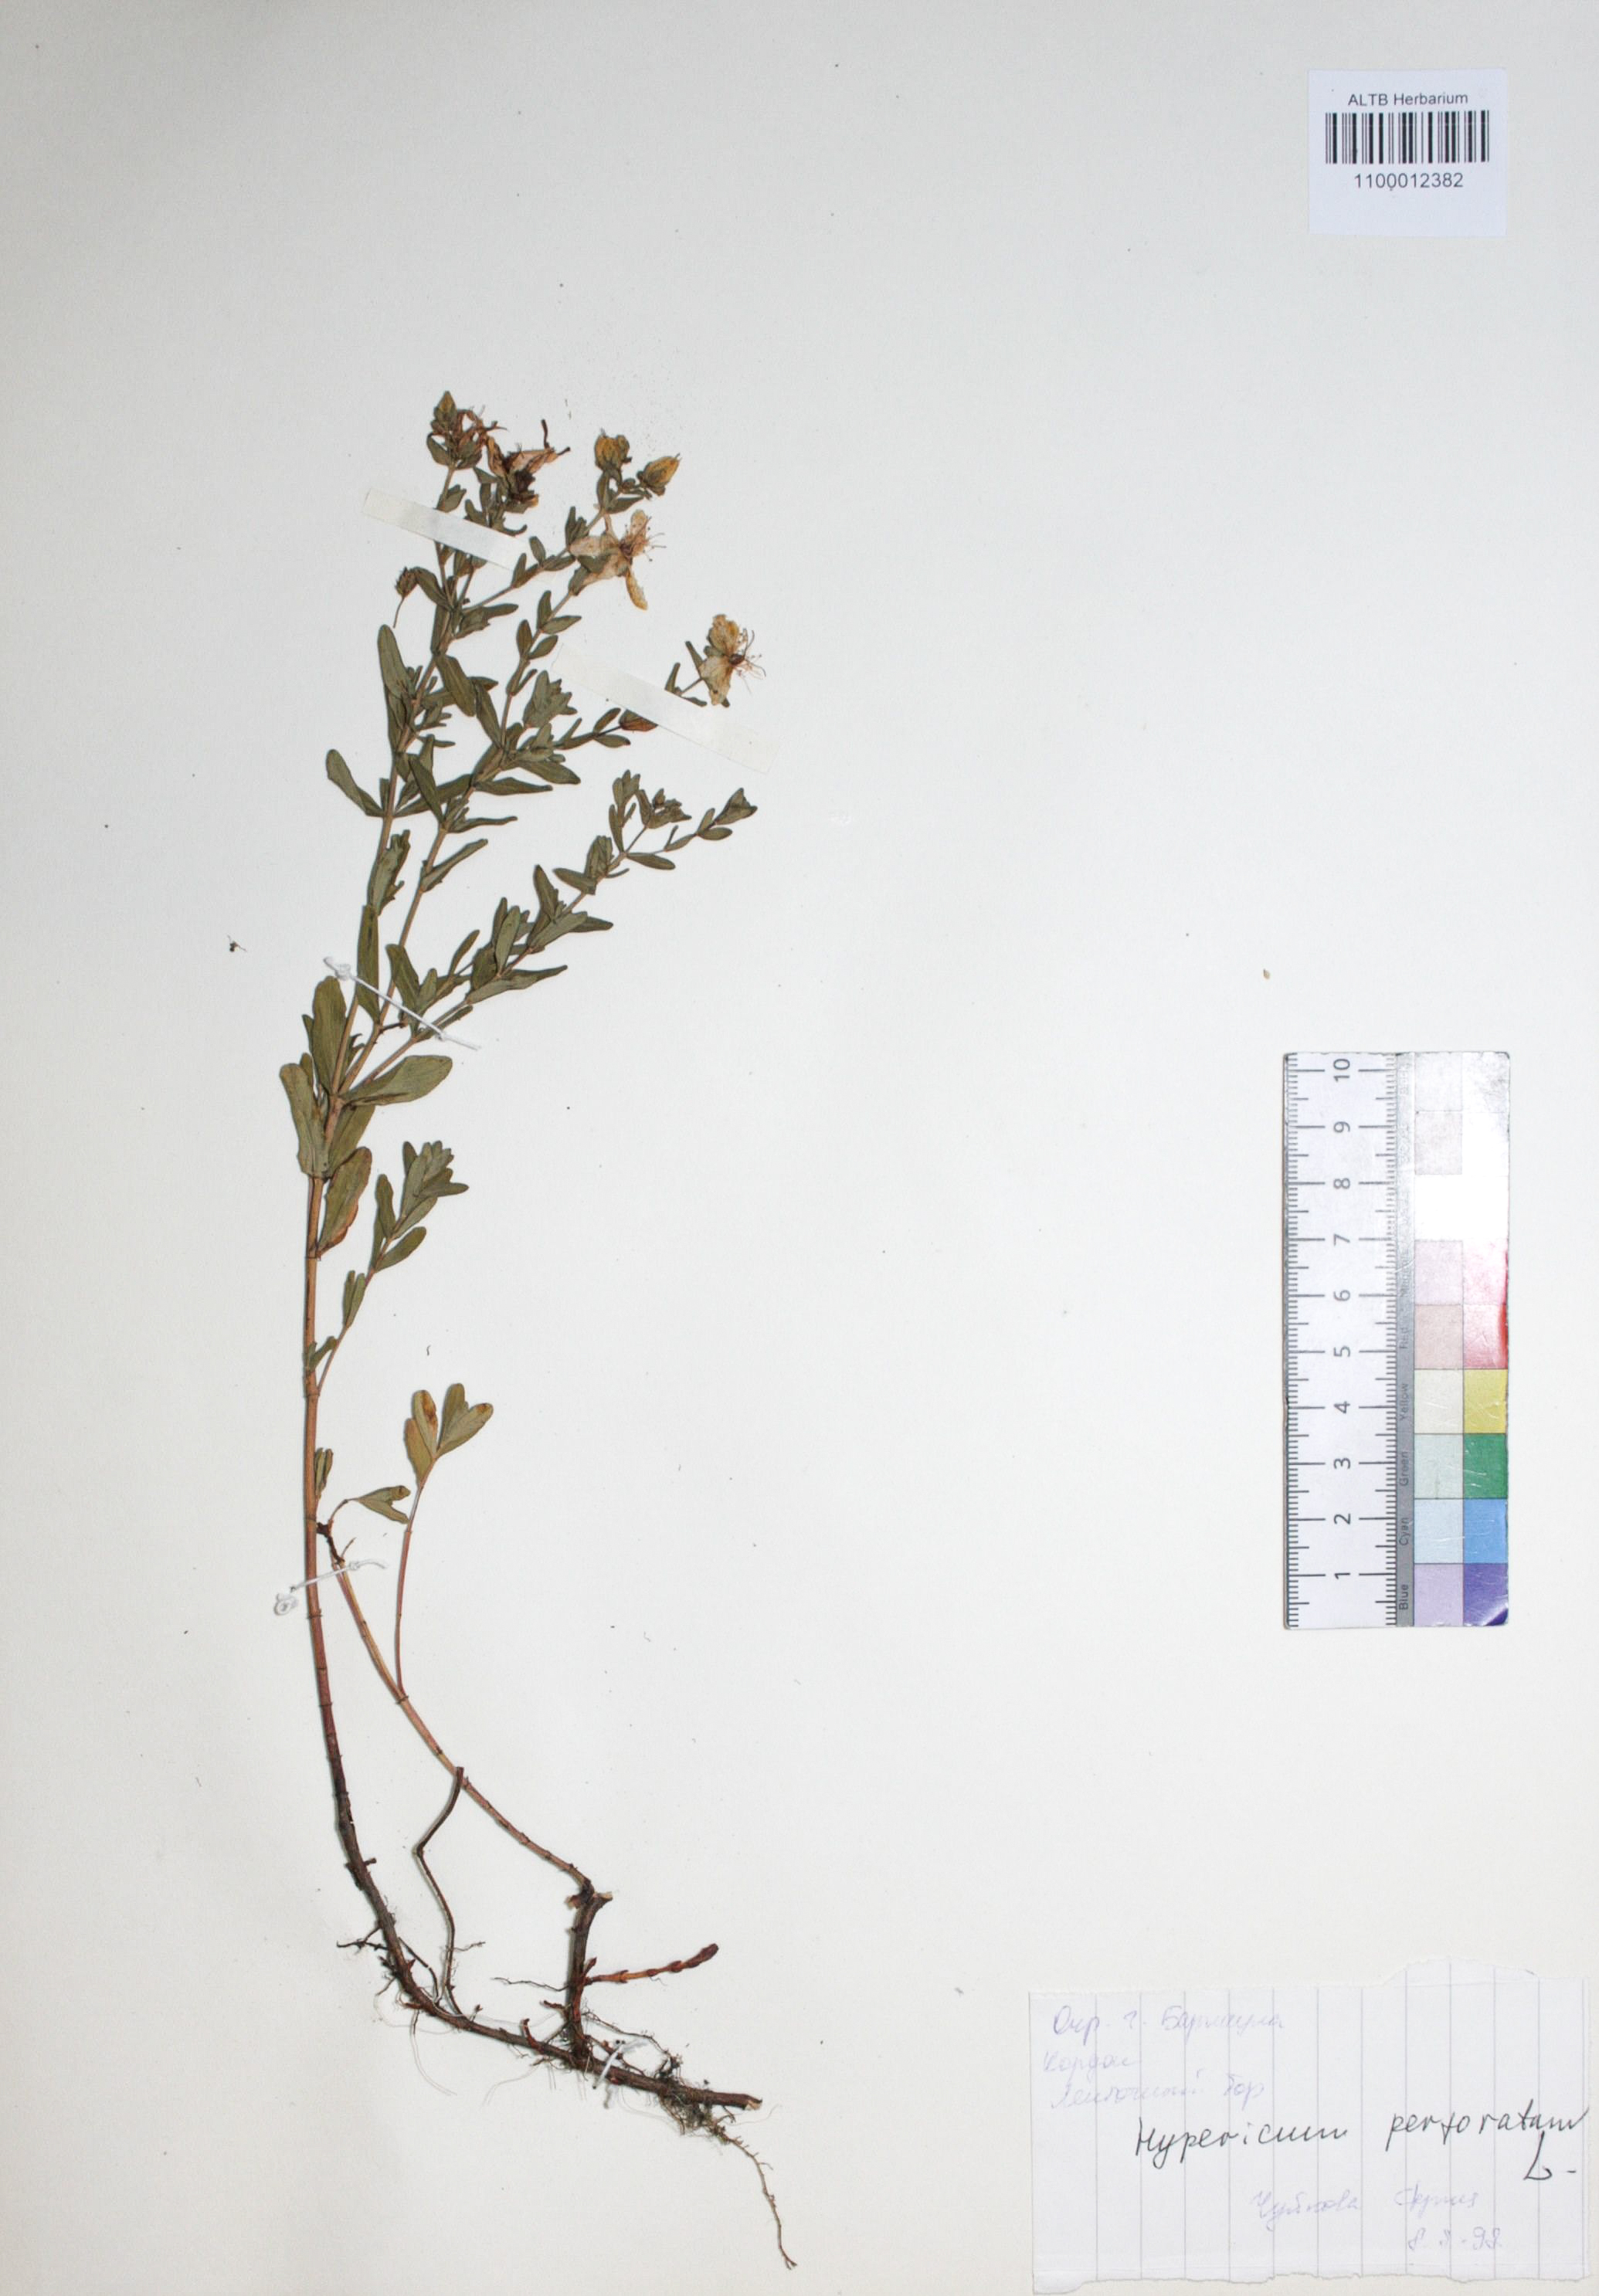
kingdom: Plantae
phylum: Tracheophyta
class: Magnoliopsida
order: Malpighiales
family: Hypericaceae
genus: Hypericum
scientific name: Hypericum perforatum
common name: Common st. johnswort
